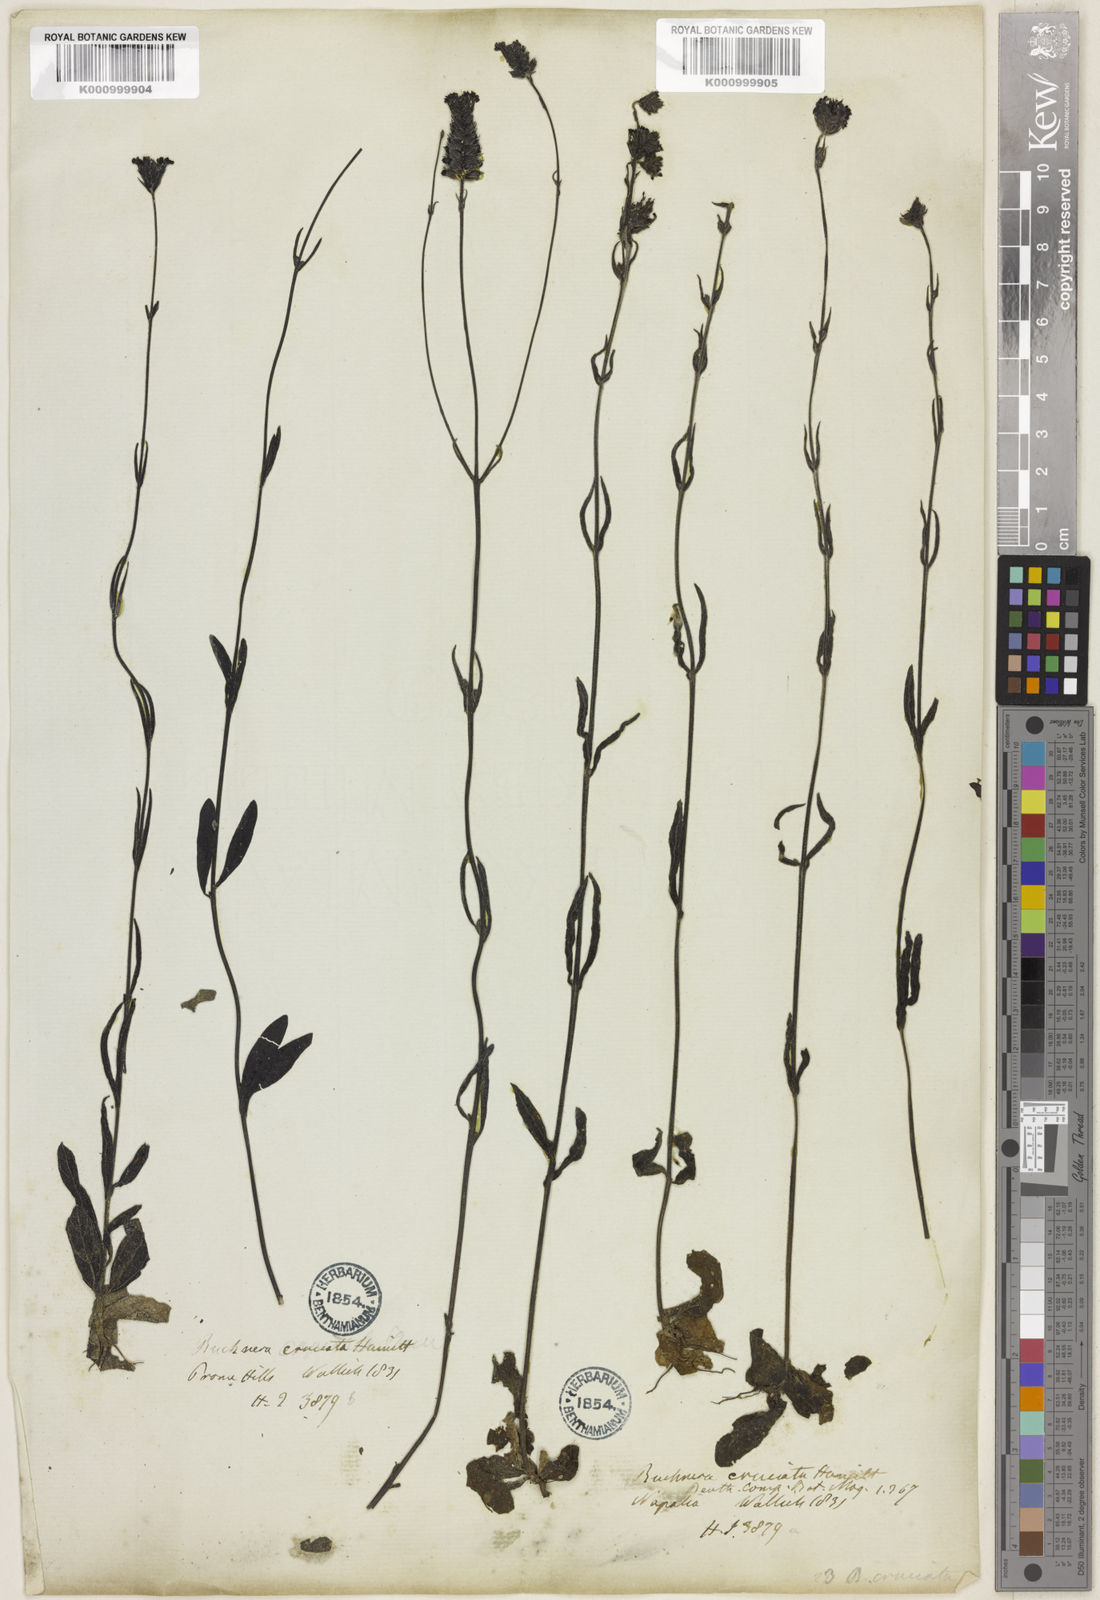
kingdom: Plantae
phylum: Tracheophyta
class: Magnoliopsida
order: Lamiales
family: Orobanchaceae
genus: Buchnera
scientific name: Buchnera cruciata
